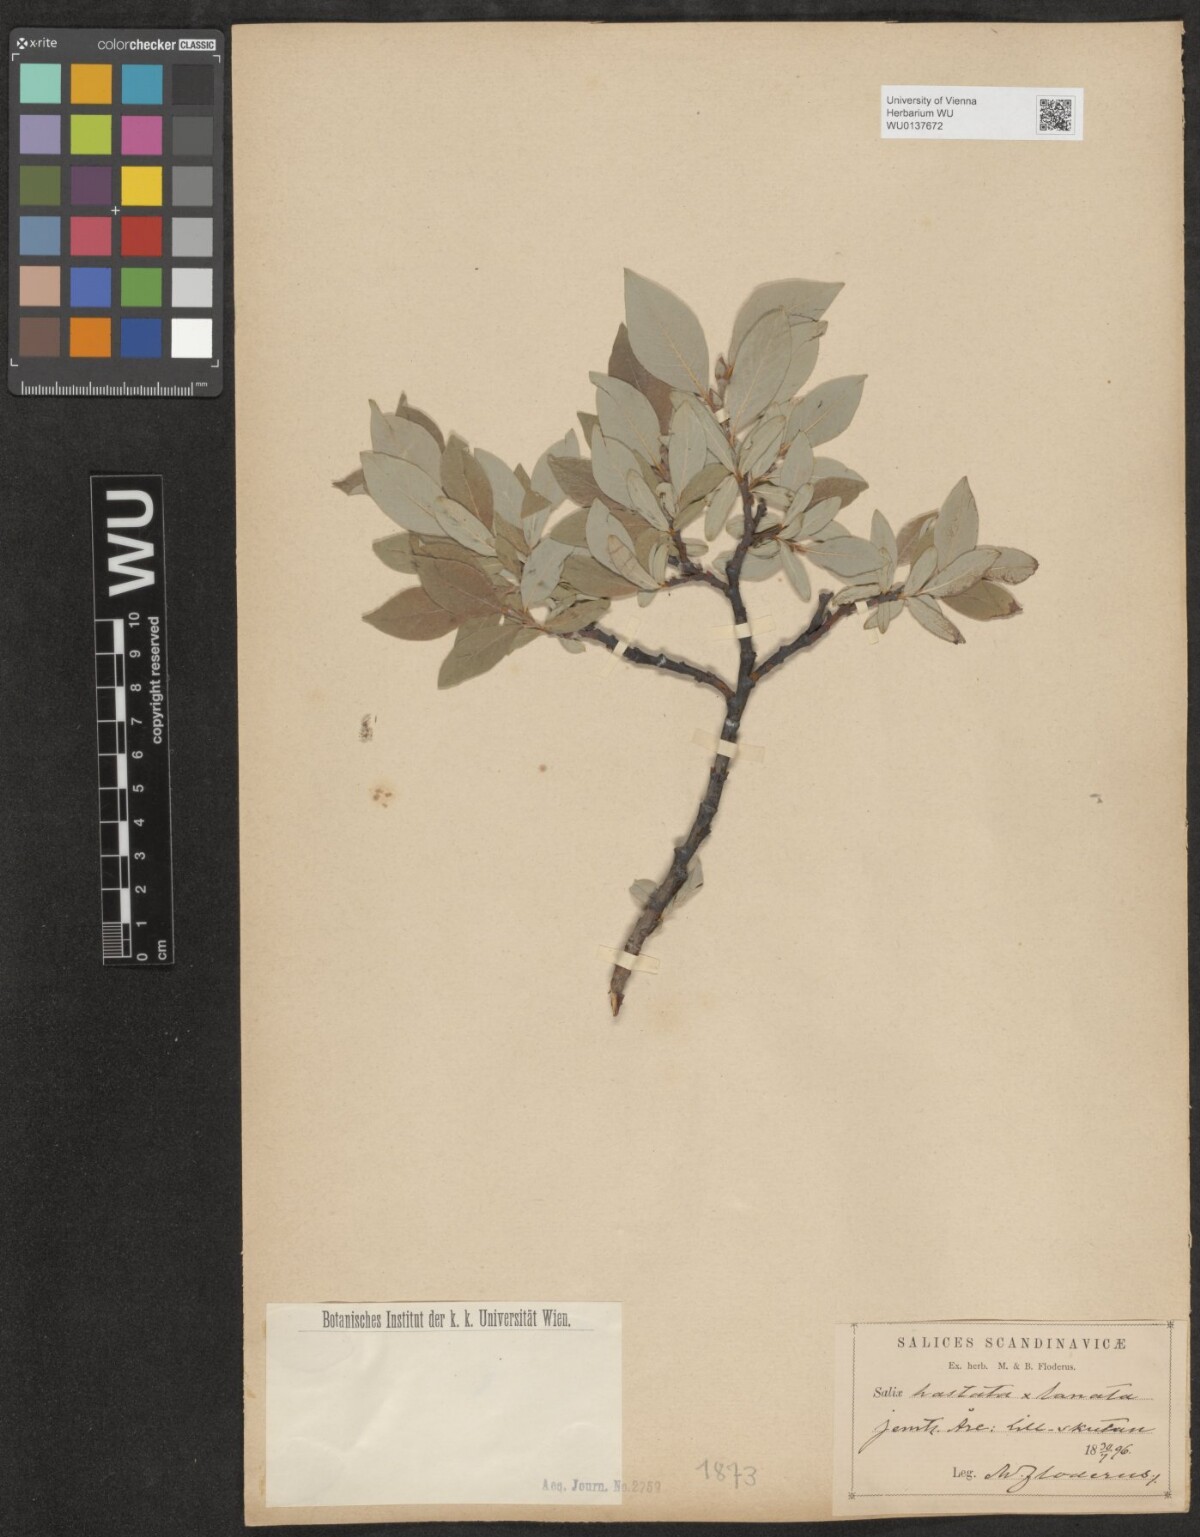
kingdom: Plantae
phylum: Tracheophyta
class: Magnoliopsida
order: Malpighiales
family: Salicaceae
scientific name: Salicaceae
